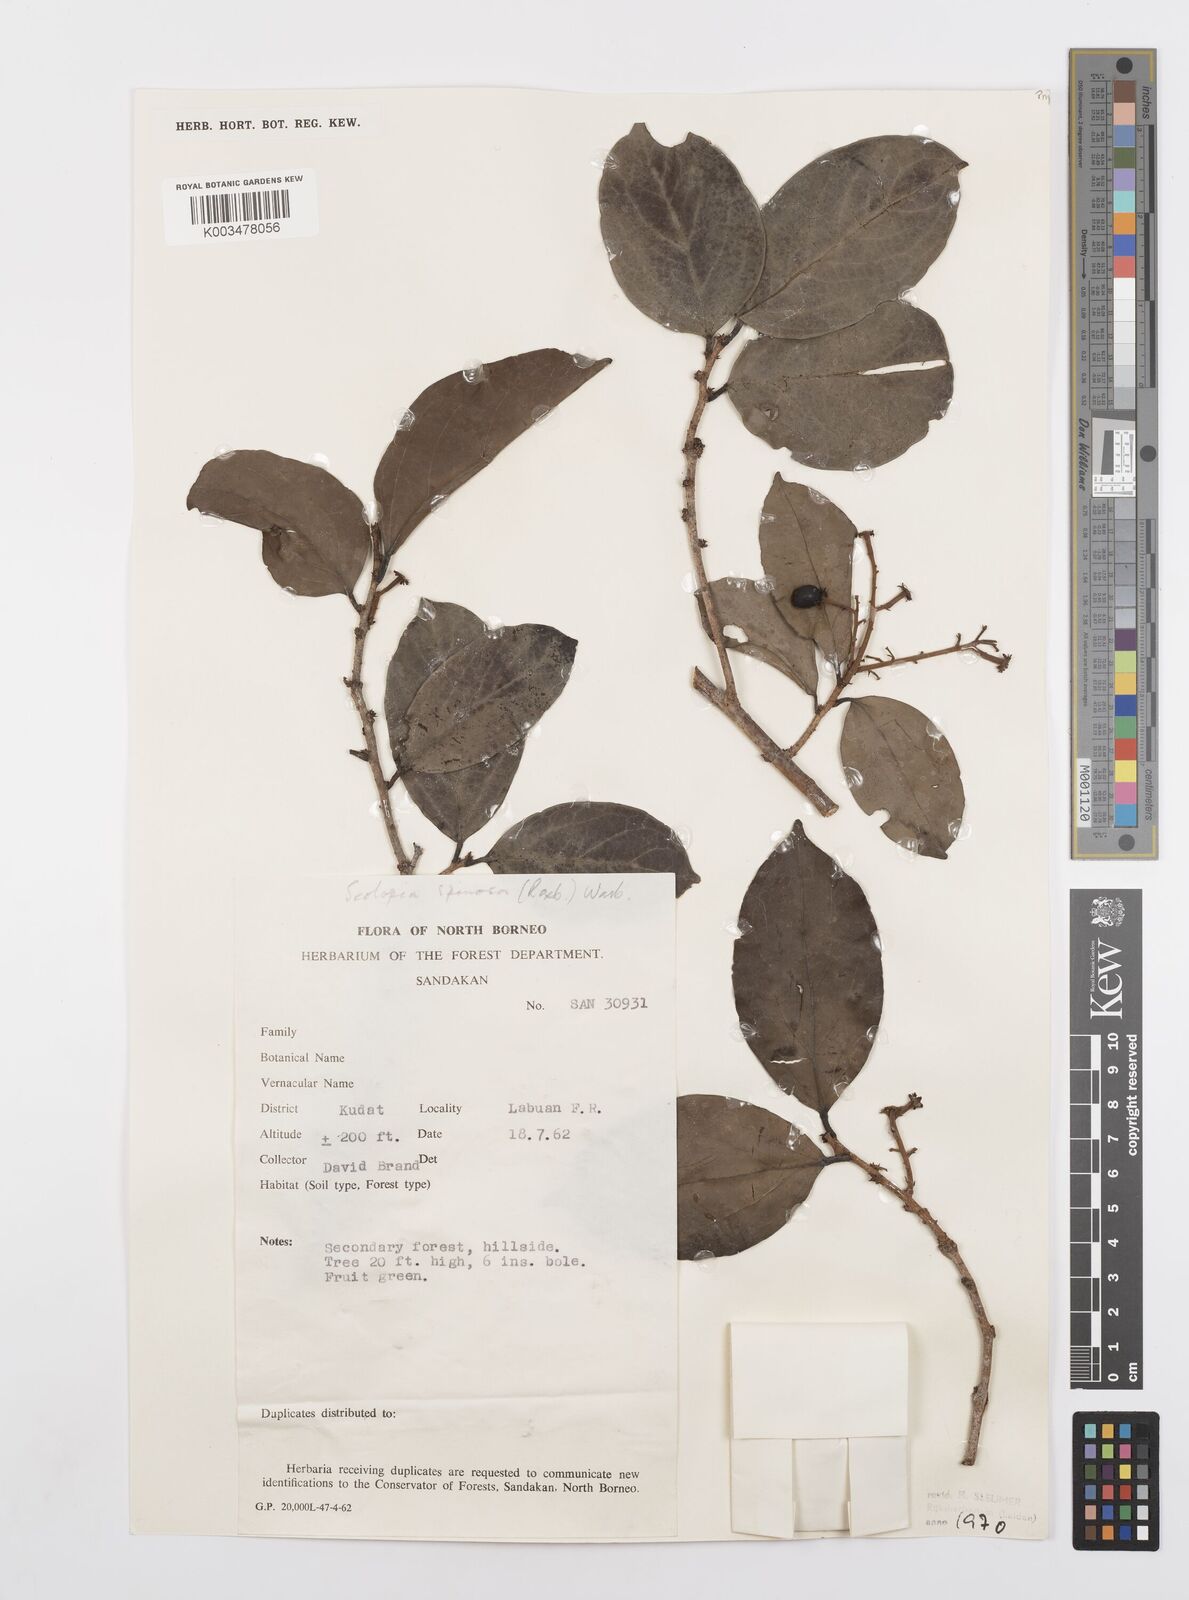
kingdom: Plantae
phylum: Tracheophyta
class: Magnoliopsida
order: Malpighiales
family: Salicaceae
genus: Scolopia
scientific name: Scolopia spinosa
